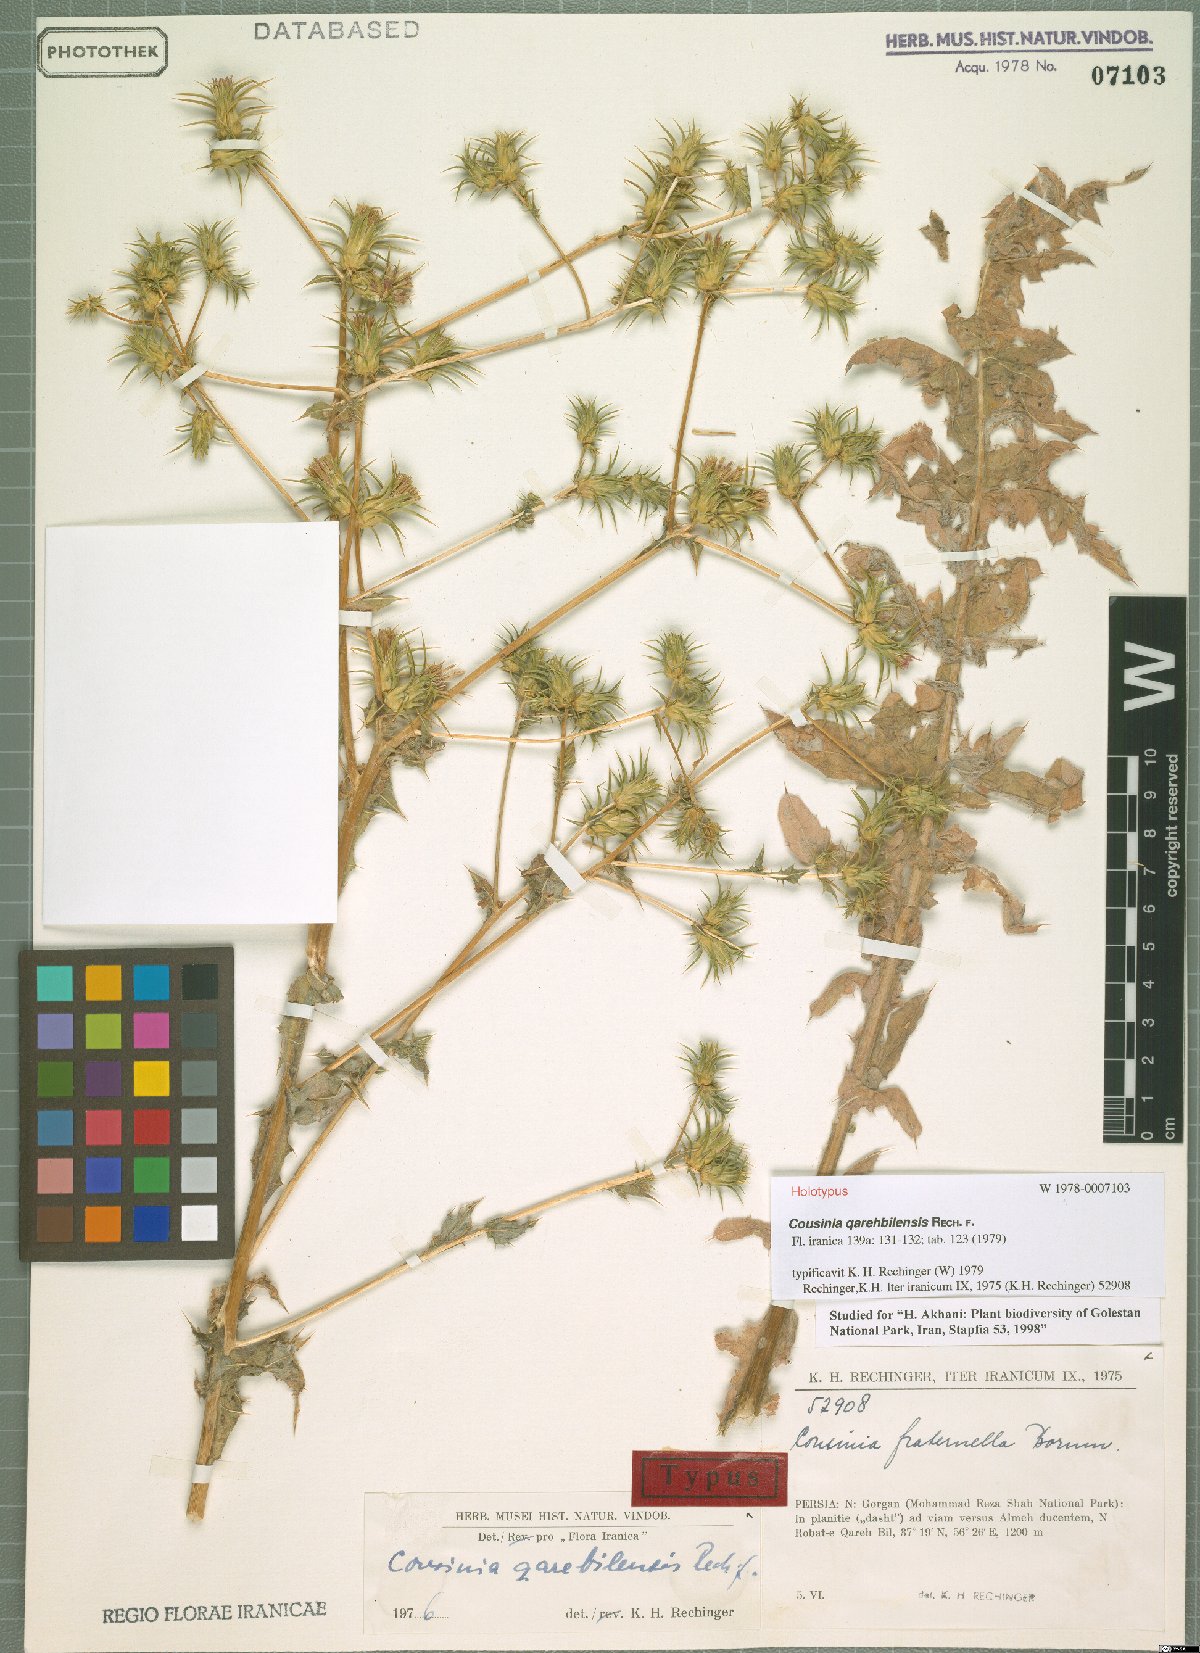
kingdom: Plantae
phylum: Tracheophyta
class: Magnoliopsida
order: Asterales
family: Asteraceae
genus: Cousinia
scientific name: Cousinia qarehbilensis
